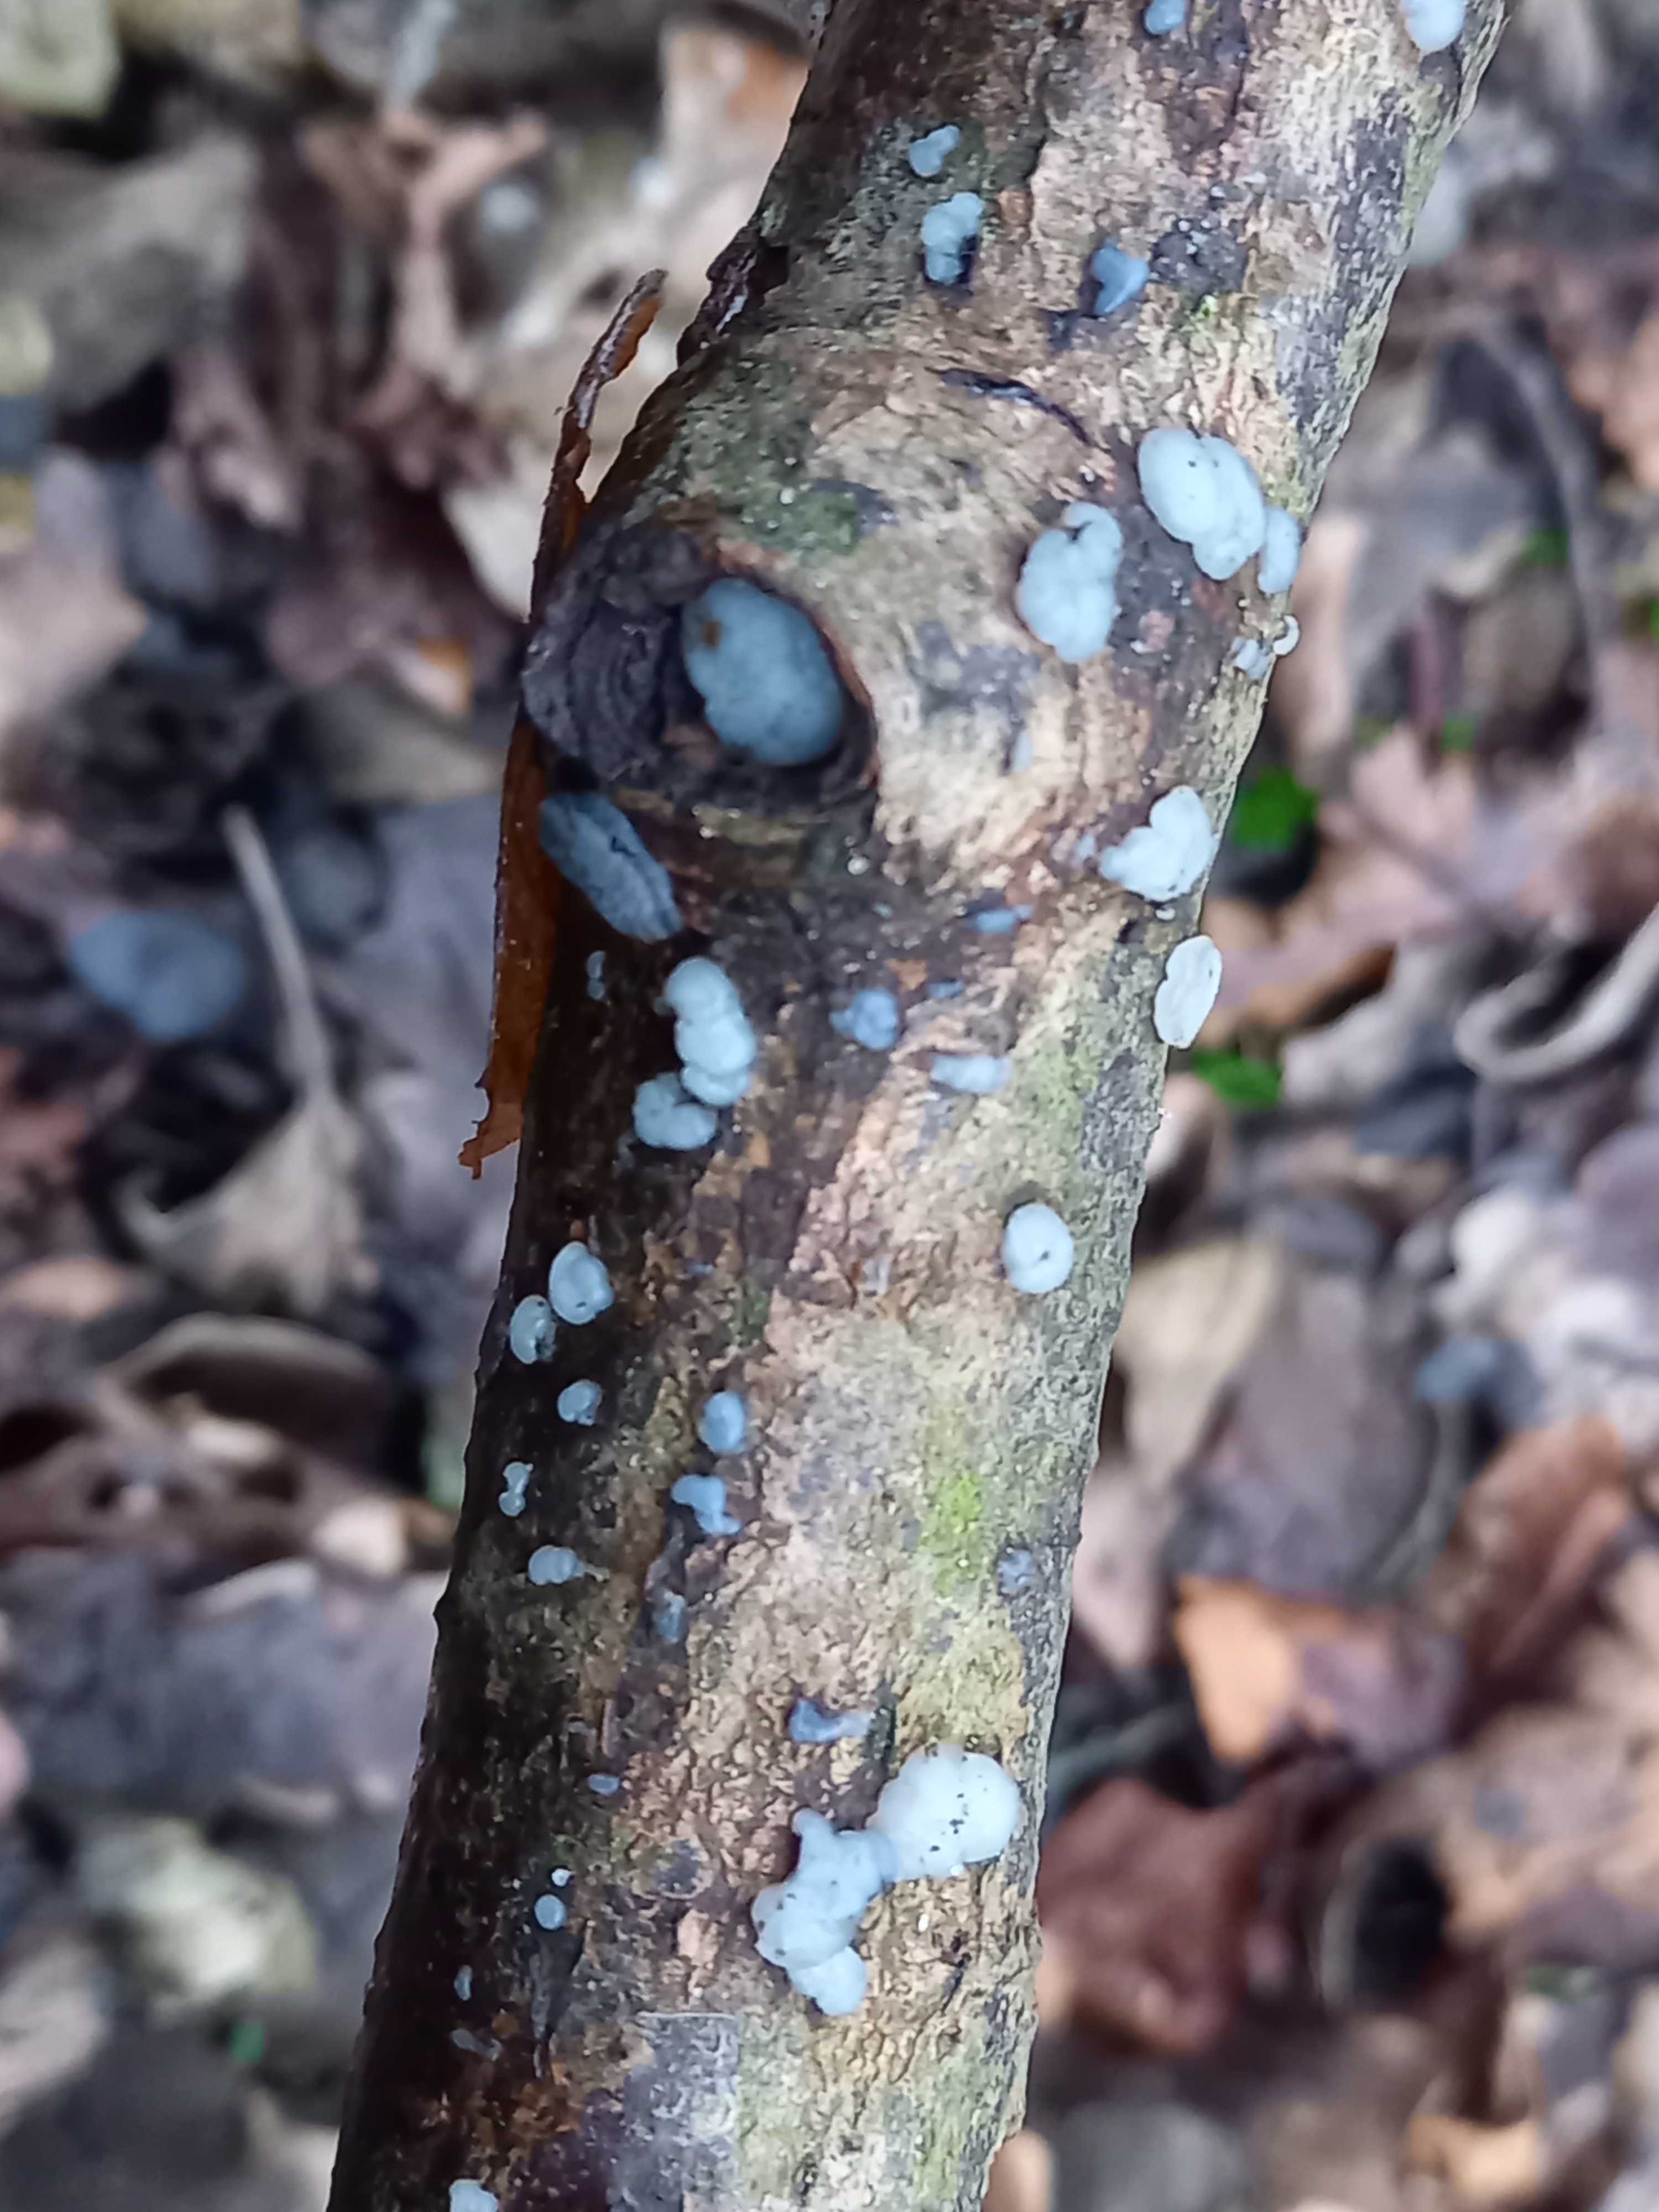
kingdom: Fungi
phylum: Basidiomycota
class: Agaricomycetes
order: Auriculariales
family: Auriculariaceae
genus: Exidia
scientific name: Exidia thuretiana
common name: hvidlig bævretop
